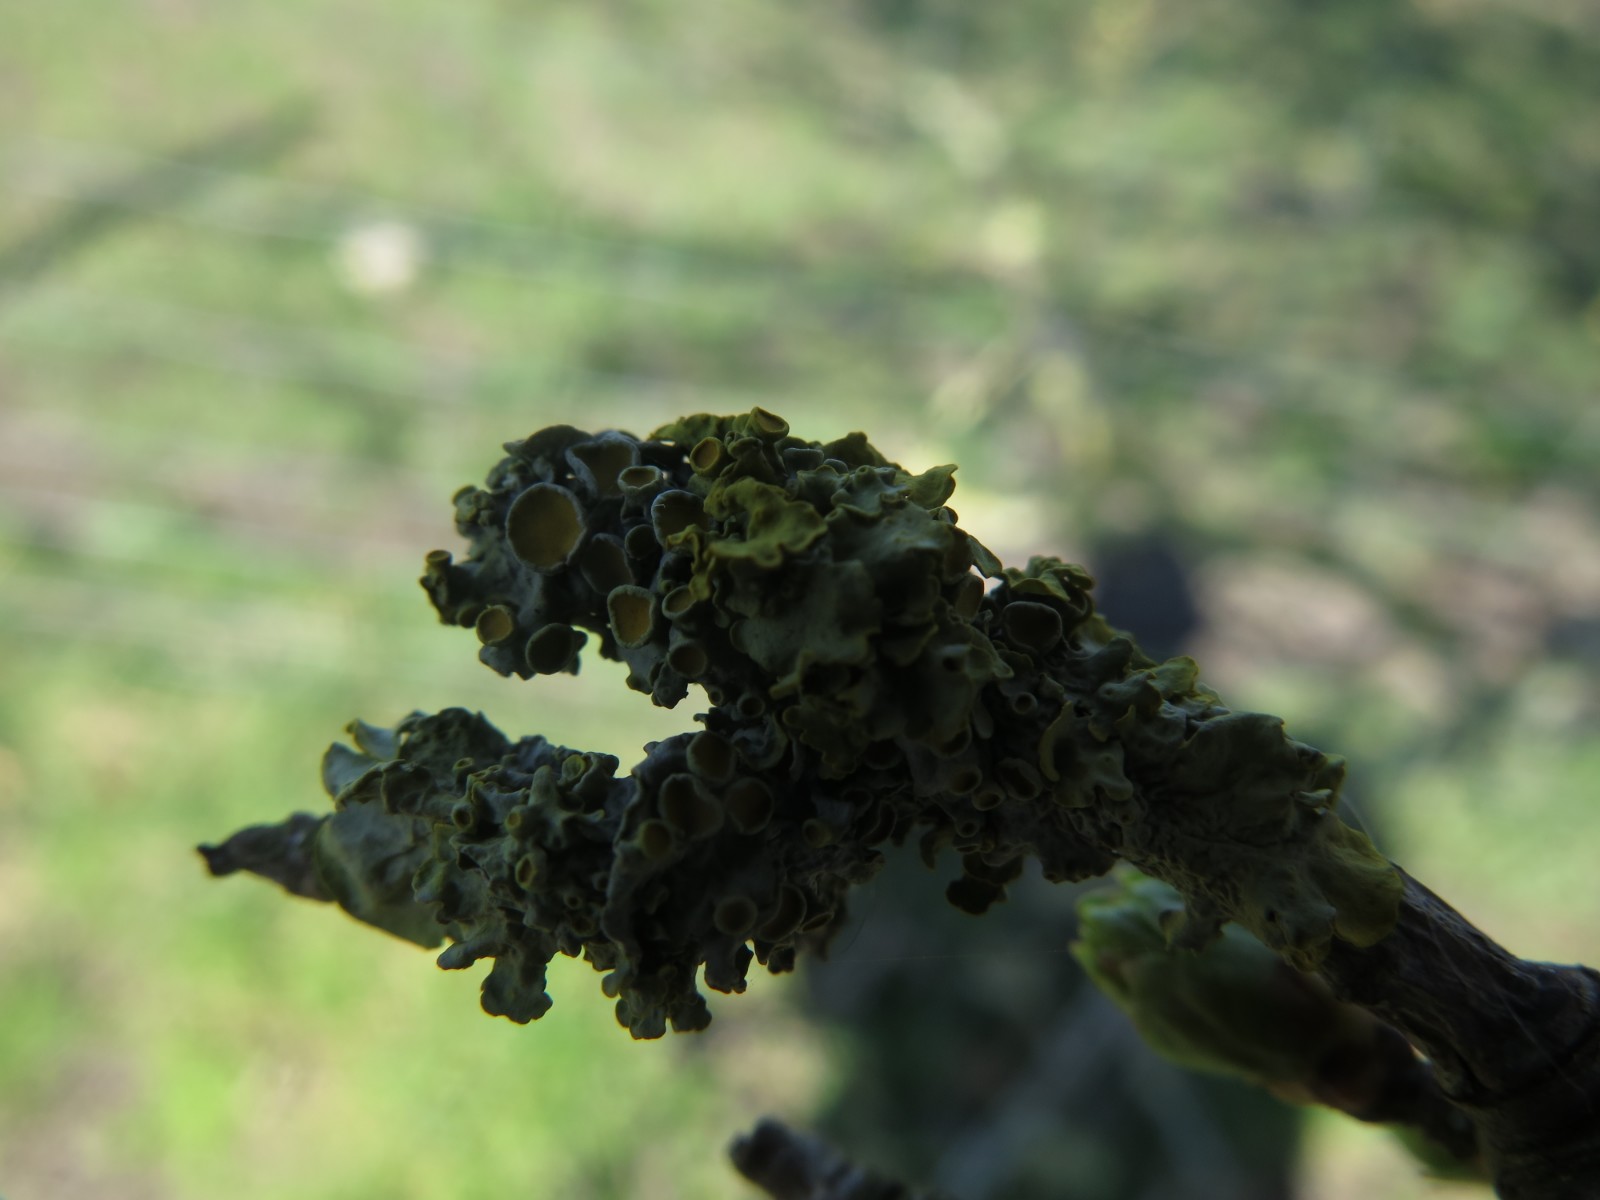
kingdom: Fungi
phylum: Ascomycota
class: Lecanoromycetes
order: Teloschistales
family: Teloschistaceae
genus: Xanthoria
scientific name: Xanthoria parietina
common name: almindelig væggelav
